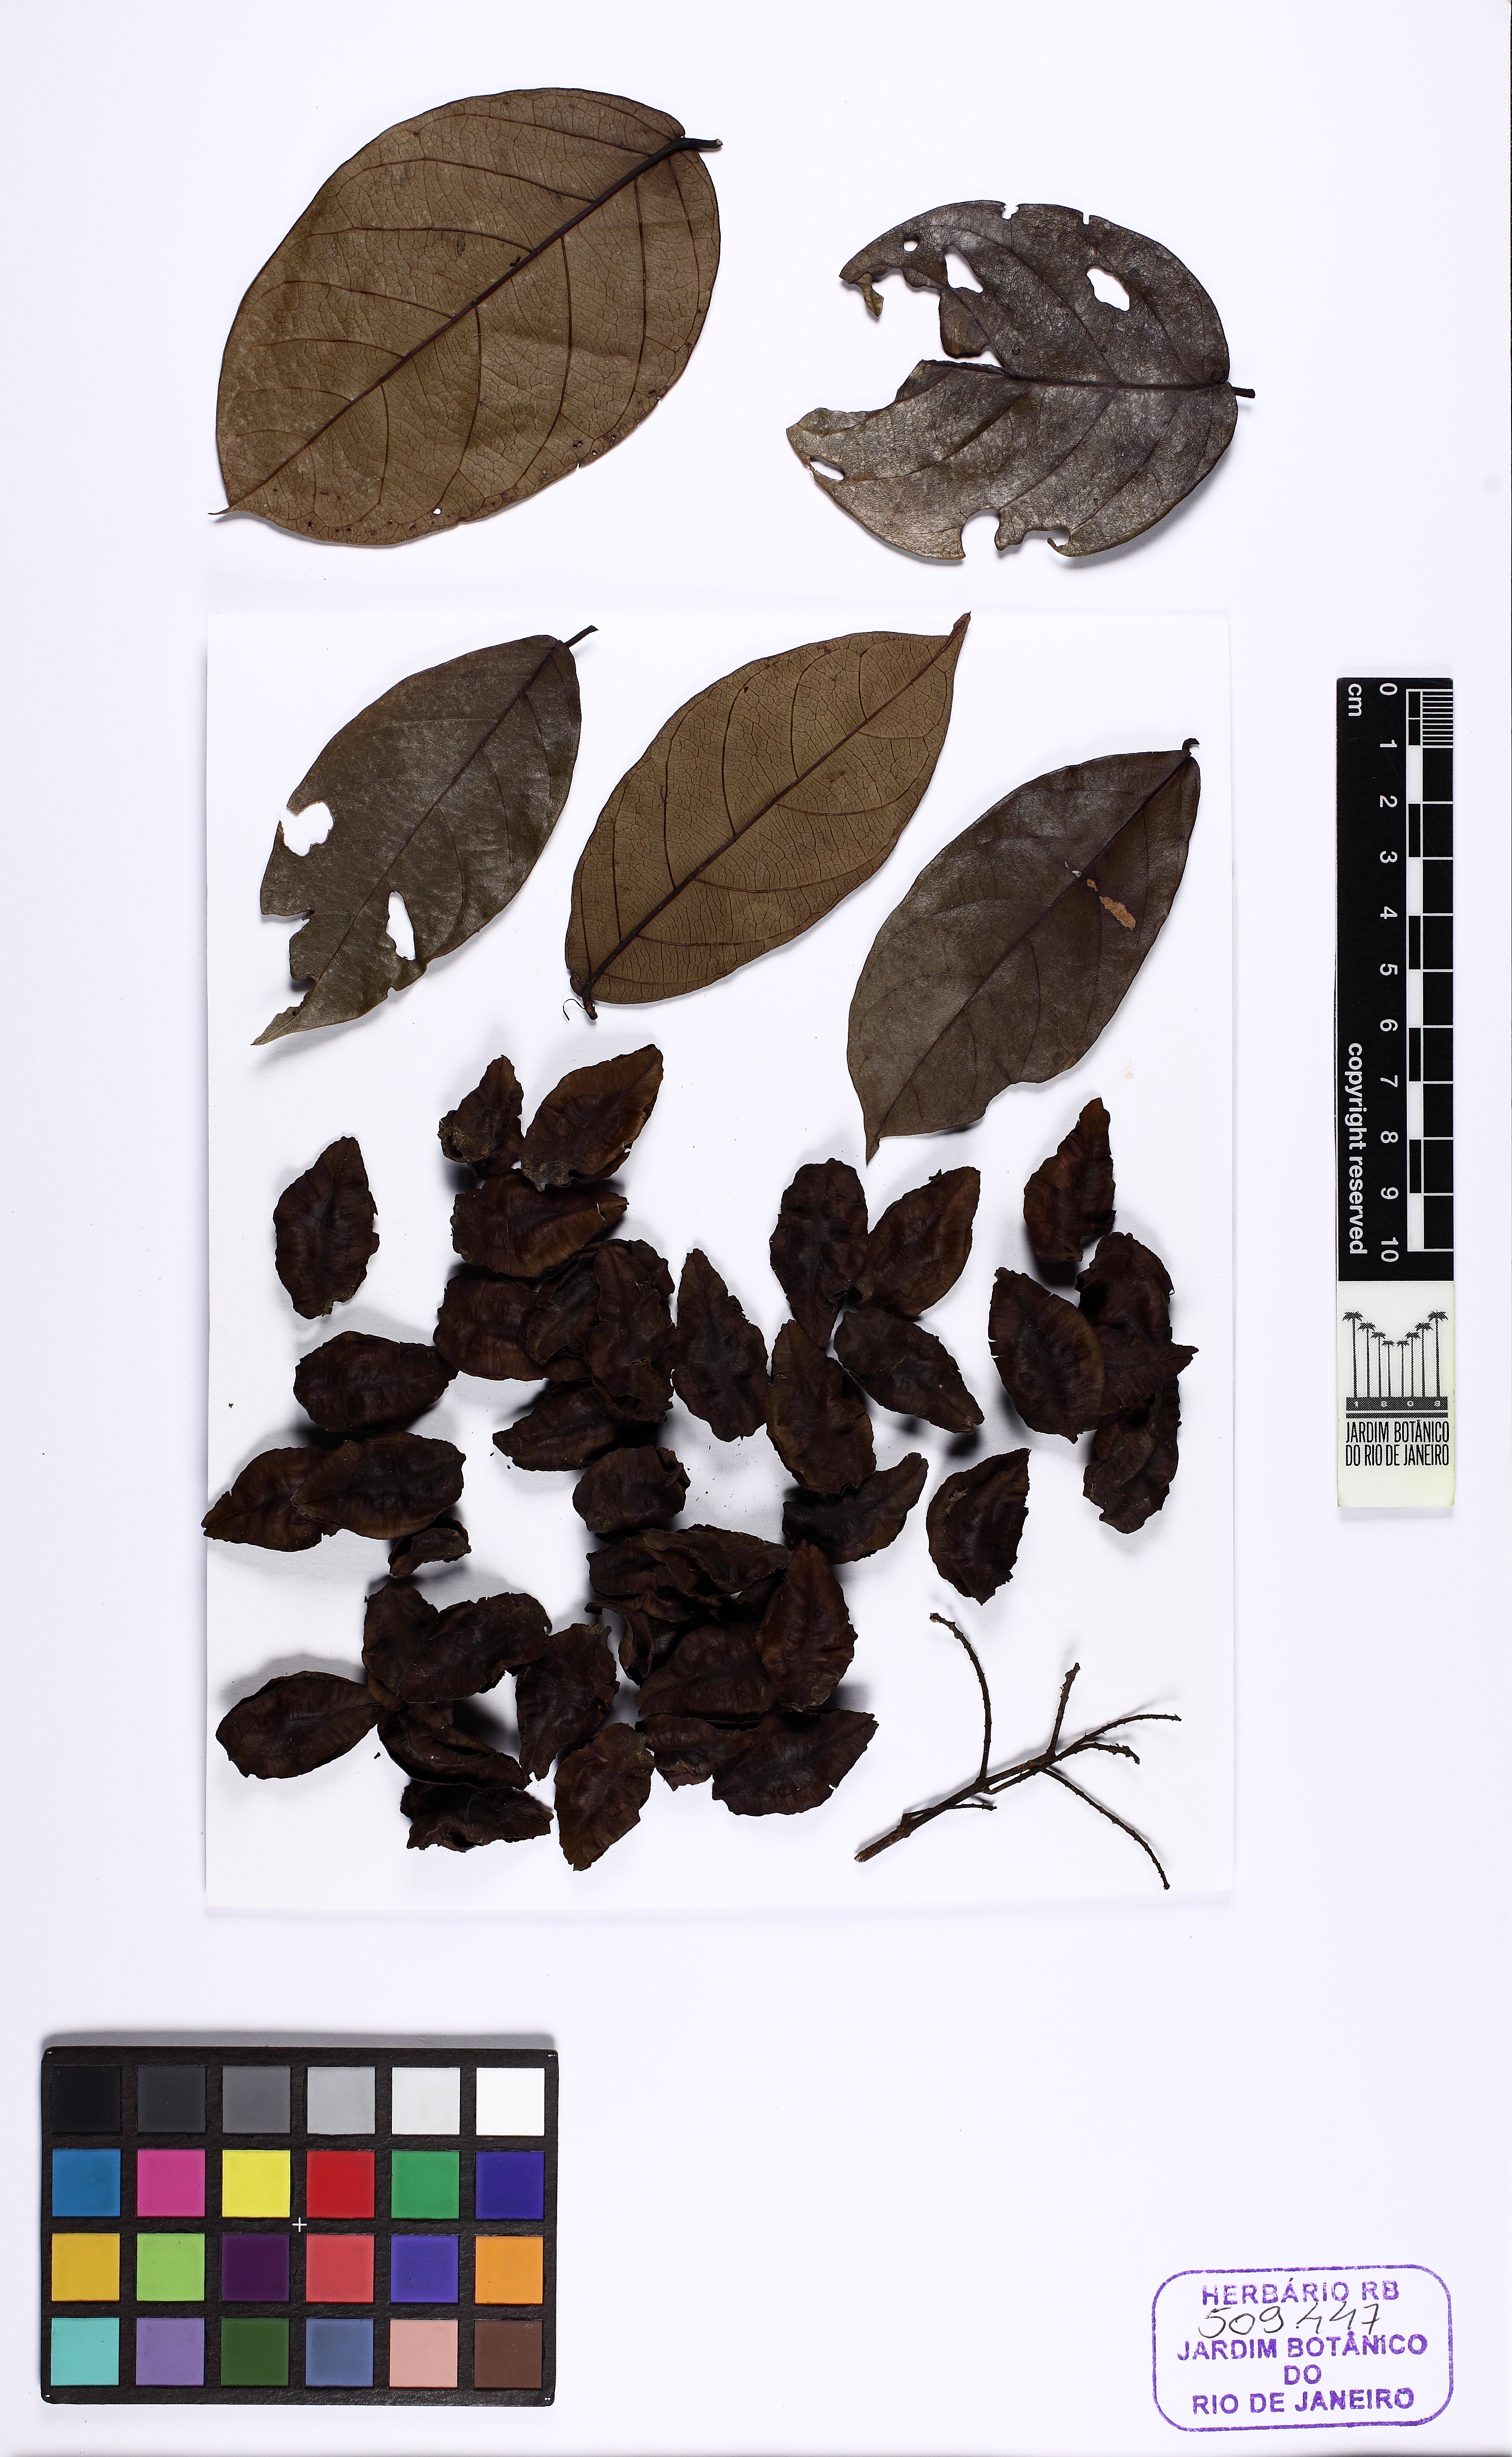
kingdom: Plantae
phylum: Tracheophyta
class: Magnoliopsida
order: Myrtales
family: Combretaceae
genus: Combretum
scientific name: Combretum pyramidatum
